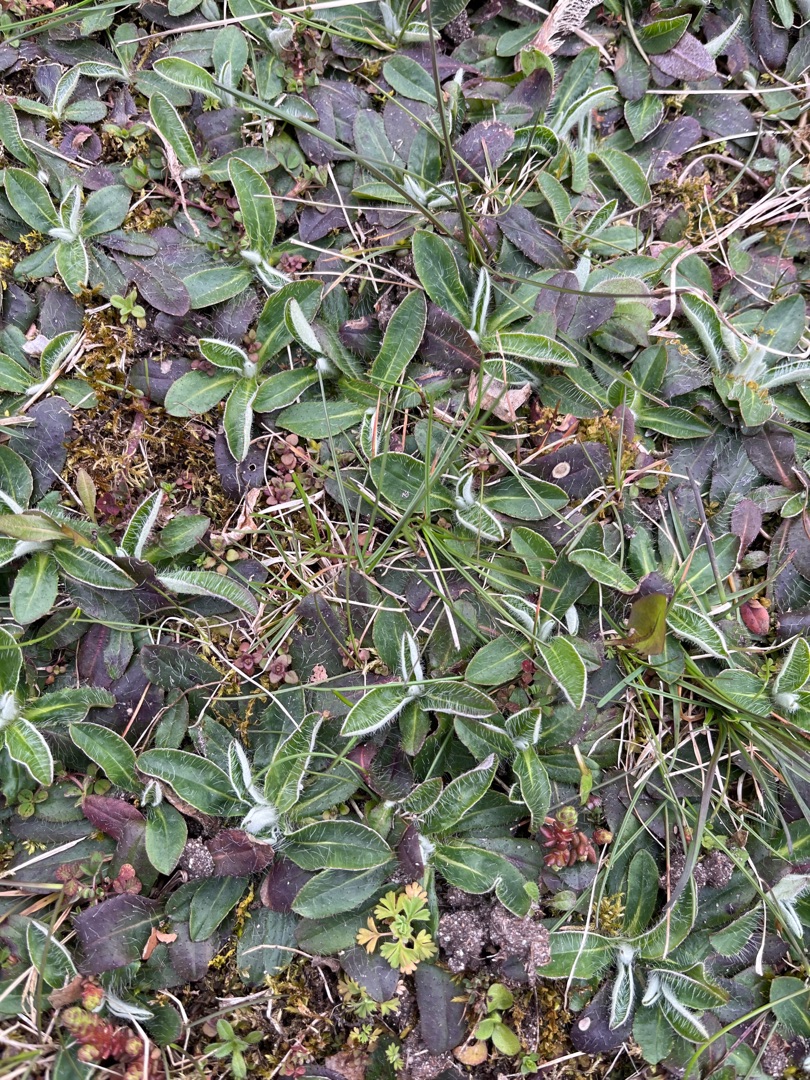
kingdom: Plantae
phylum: Tracheophyta
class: Magnoliopsida
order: Asterales
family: Asteraceae
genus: Pilosella
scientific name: Pilosella officinarum
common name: Håret høgeurt
